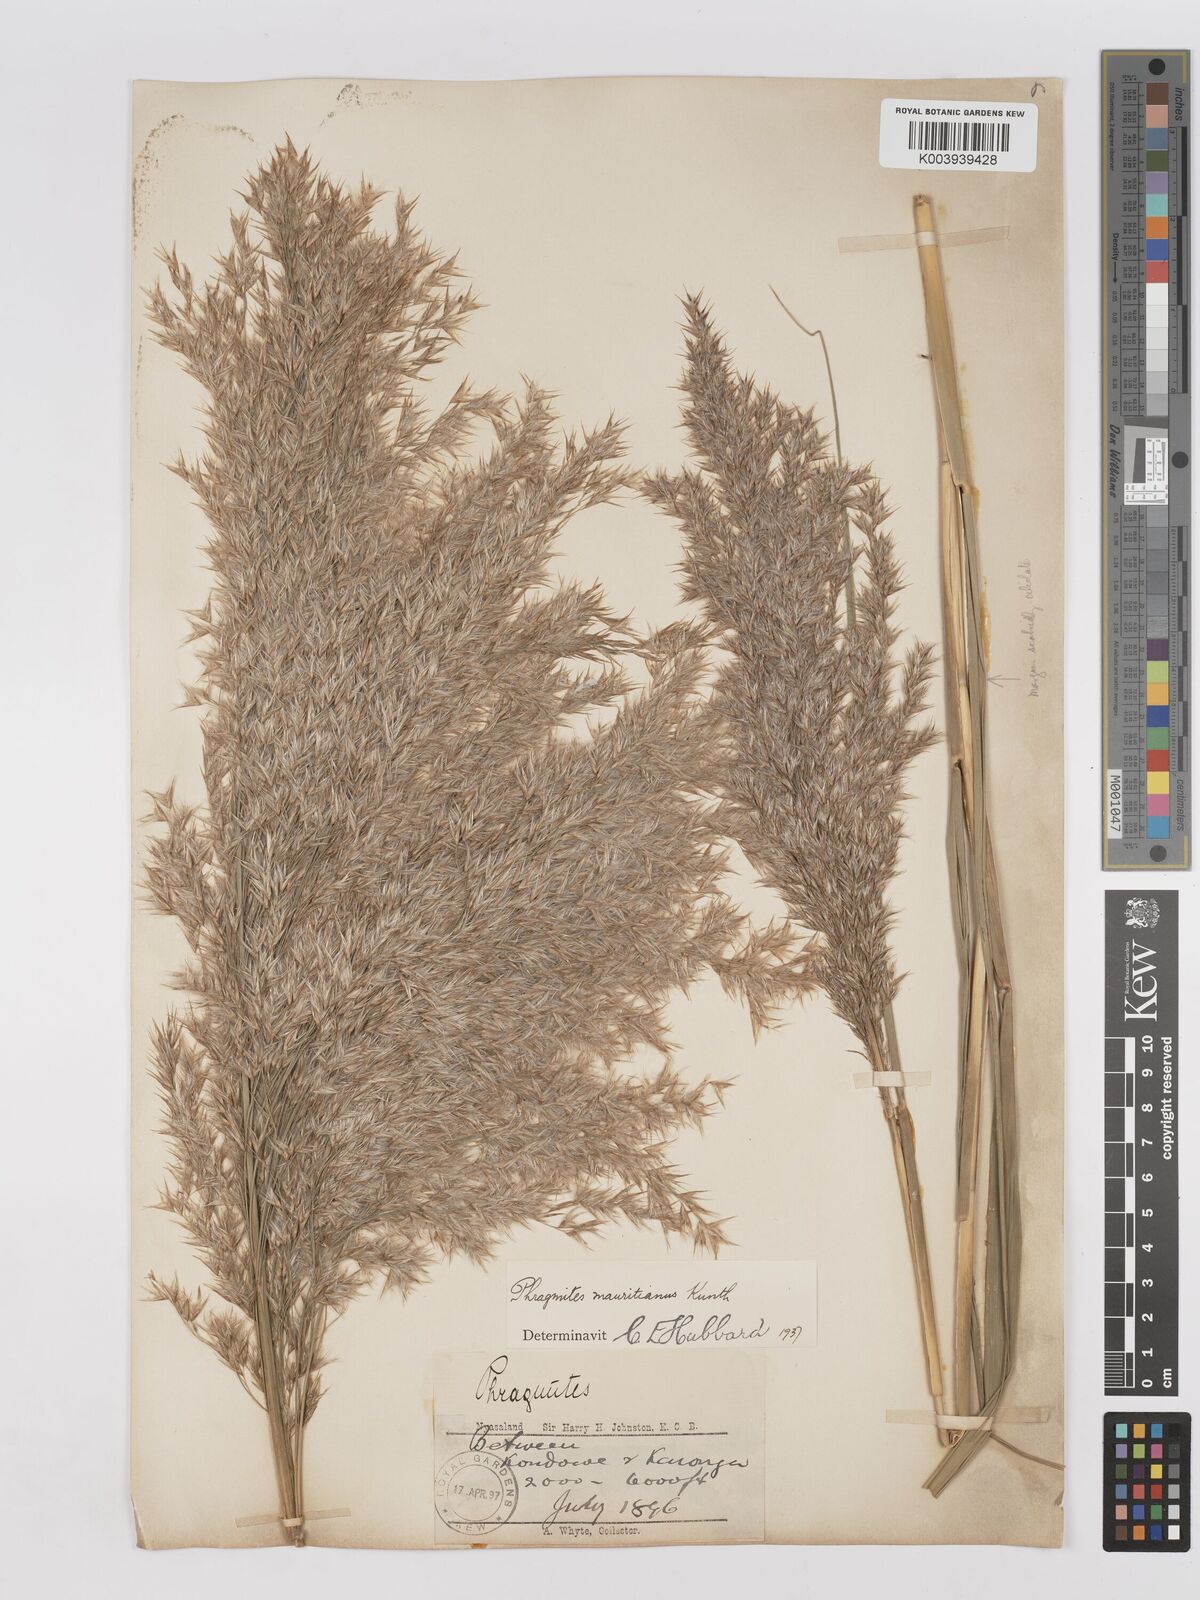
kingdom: Plantae
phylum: Tracheophyta
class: Liliopsida
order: Poales
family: Poaceae
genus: Phragmites
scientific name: Phragmites mauritianus
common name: Reed grass
